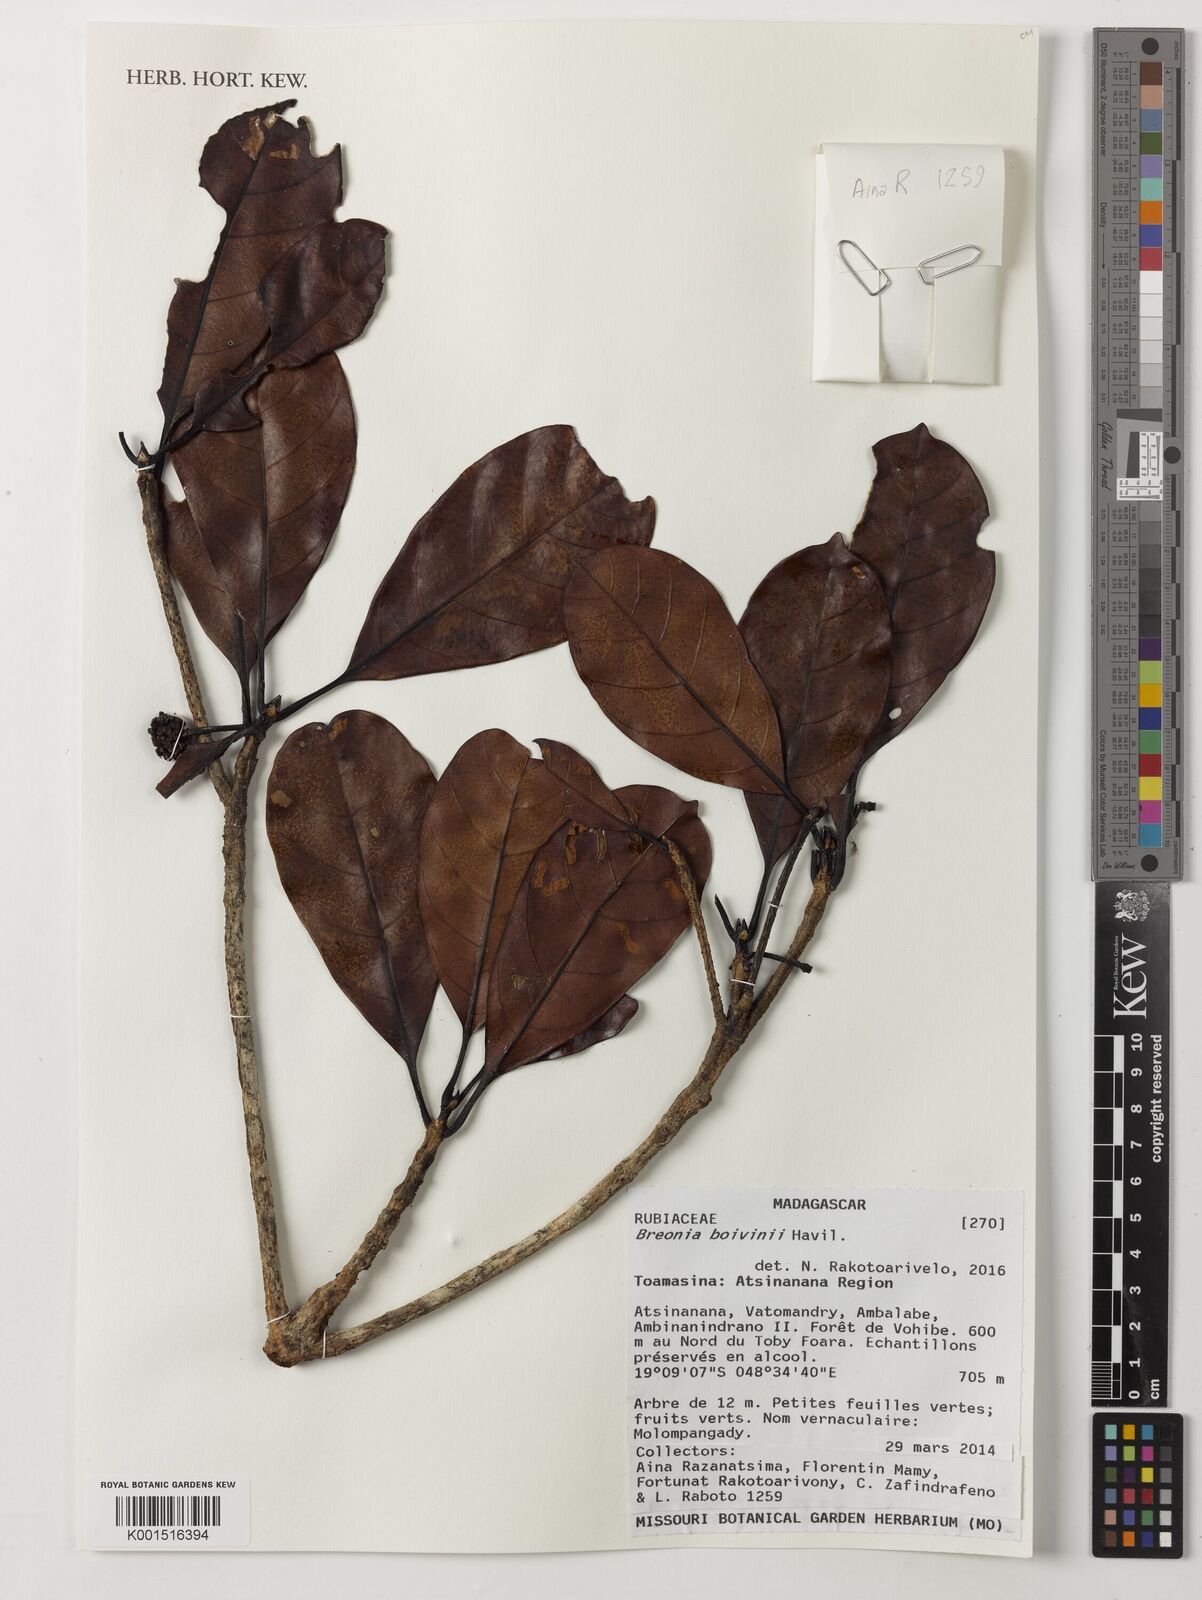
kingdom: Plantae
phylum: Tracheophyta
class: Magnoliopsida
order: Gentianales
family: Rubiaceae
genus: Breonia
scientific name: Breonia boivinii
